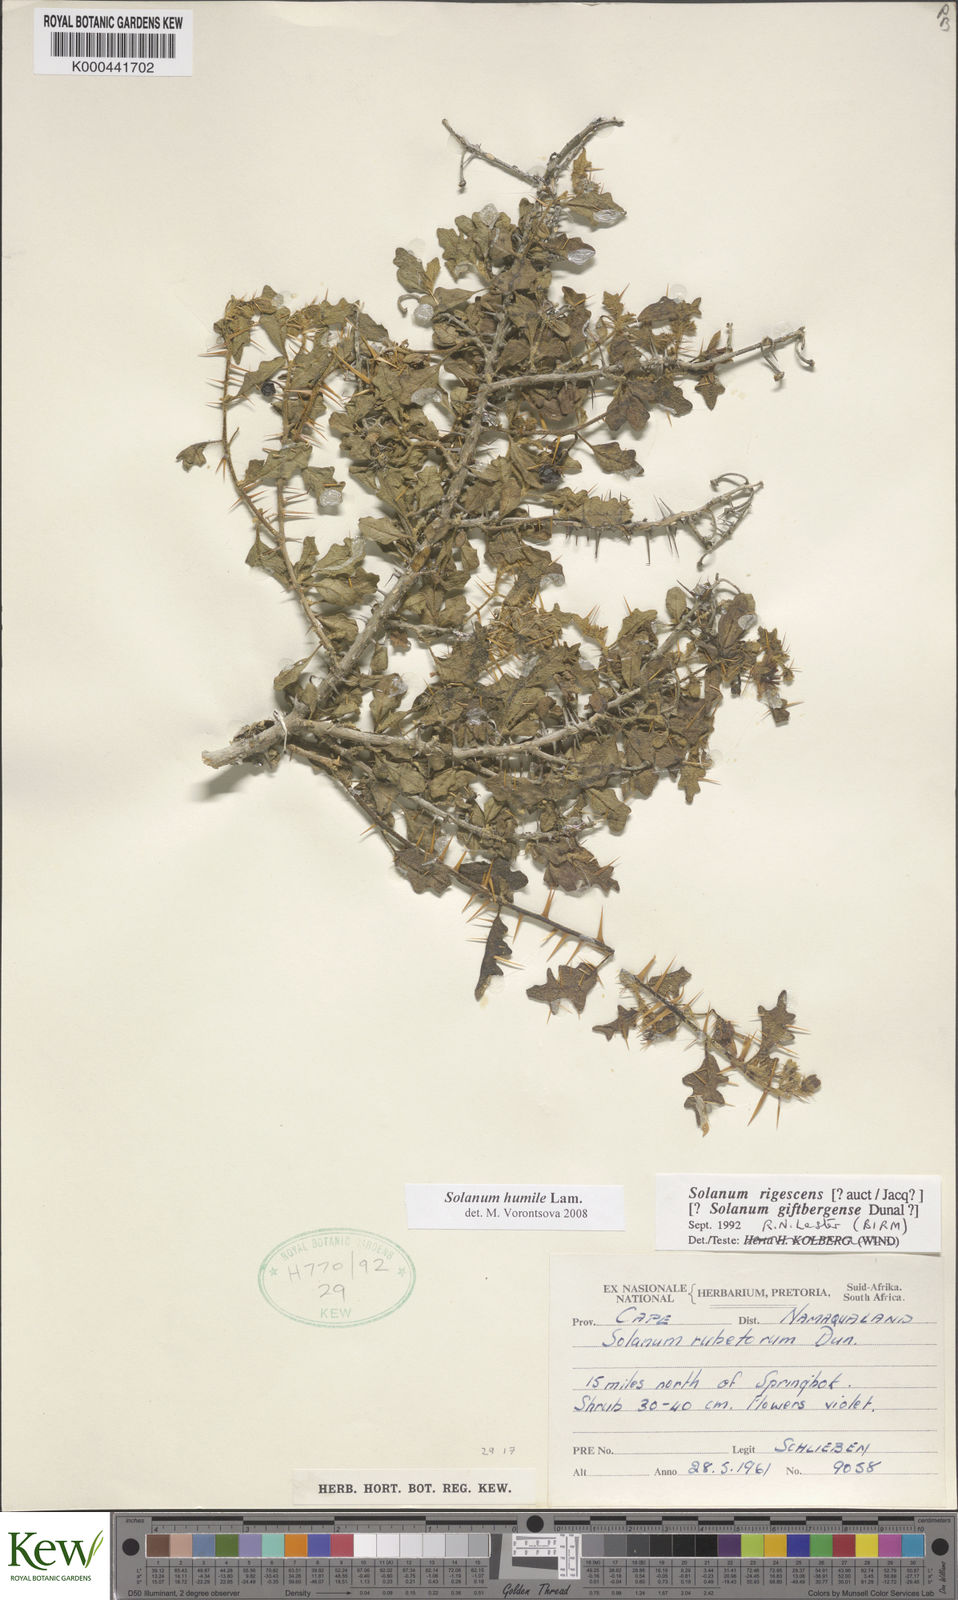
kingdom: Plantae
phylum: Tracheophyta
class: Magnoliopsida
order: Solanales
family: Solanaceae
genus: Solanum
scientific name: Solanum humile
